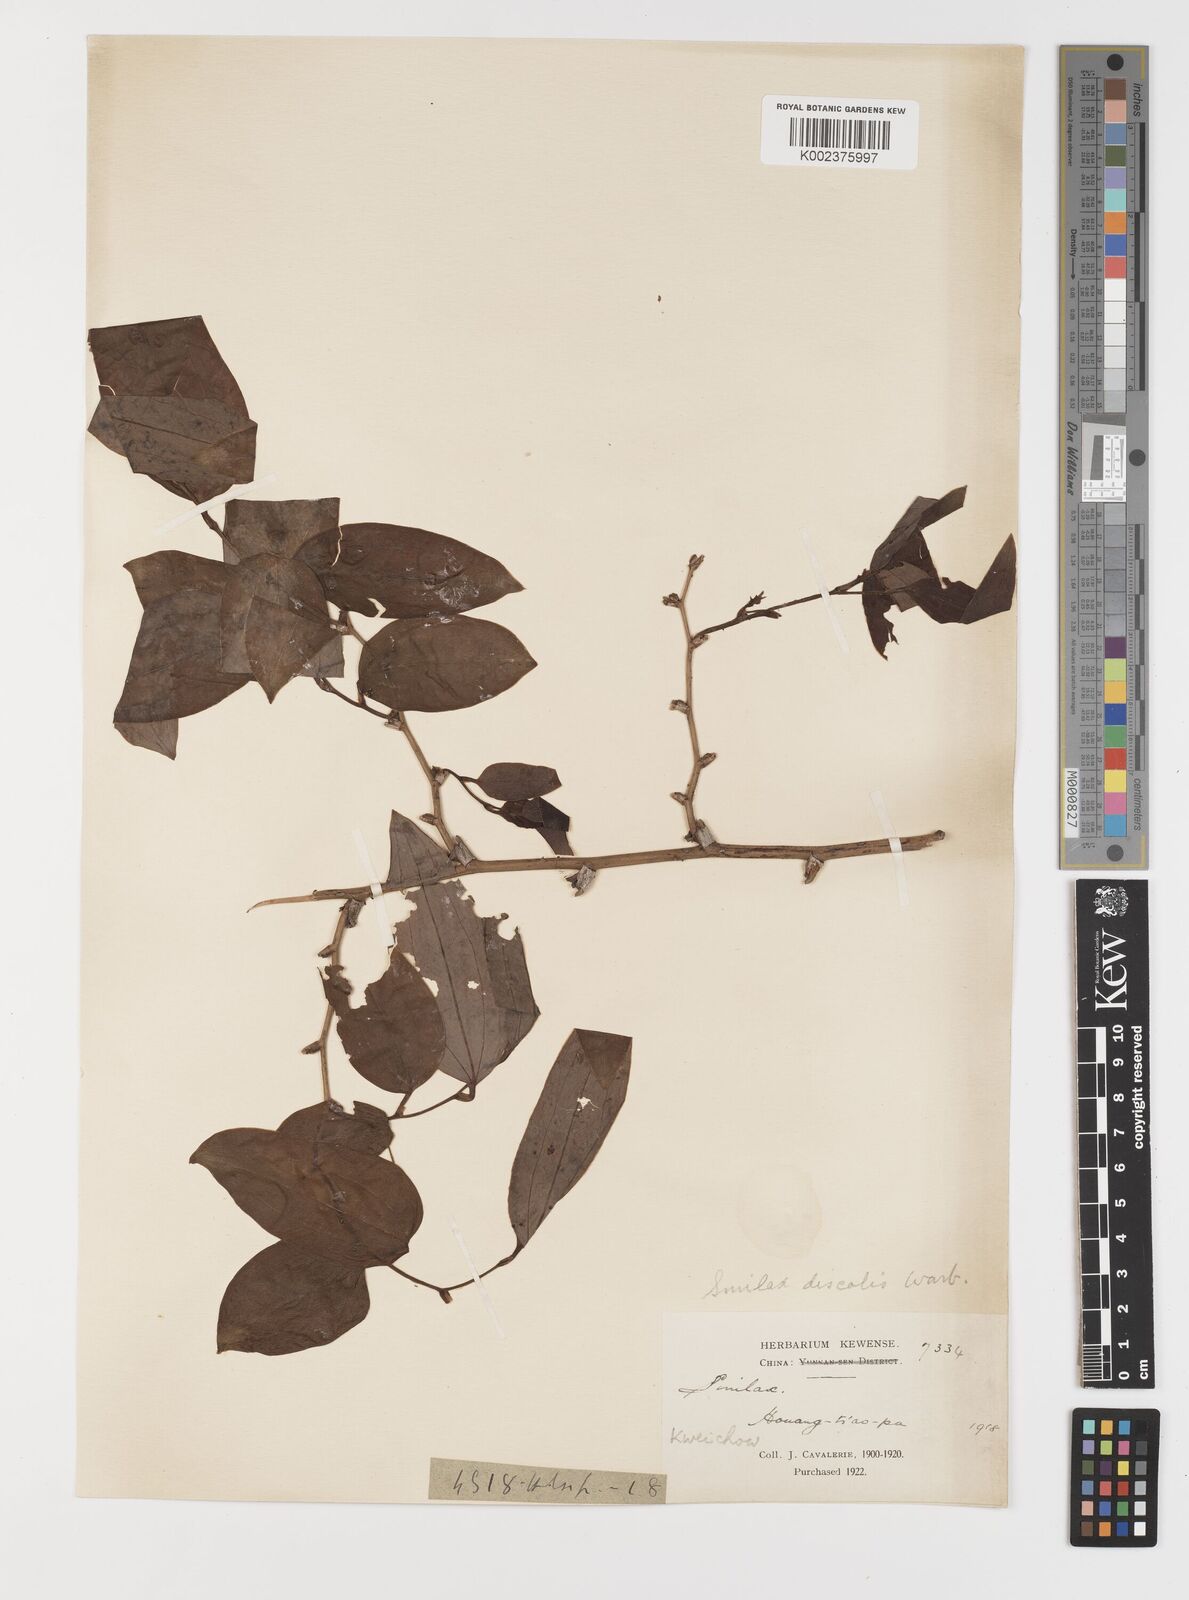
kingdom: Plantae
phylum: Tracheophyta
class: Liliopsida
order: Liliales
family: Smilacaceae
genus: Smilax
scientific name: Smilax discotis
